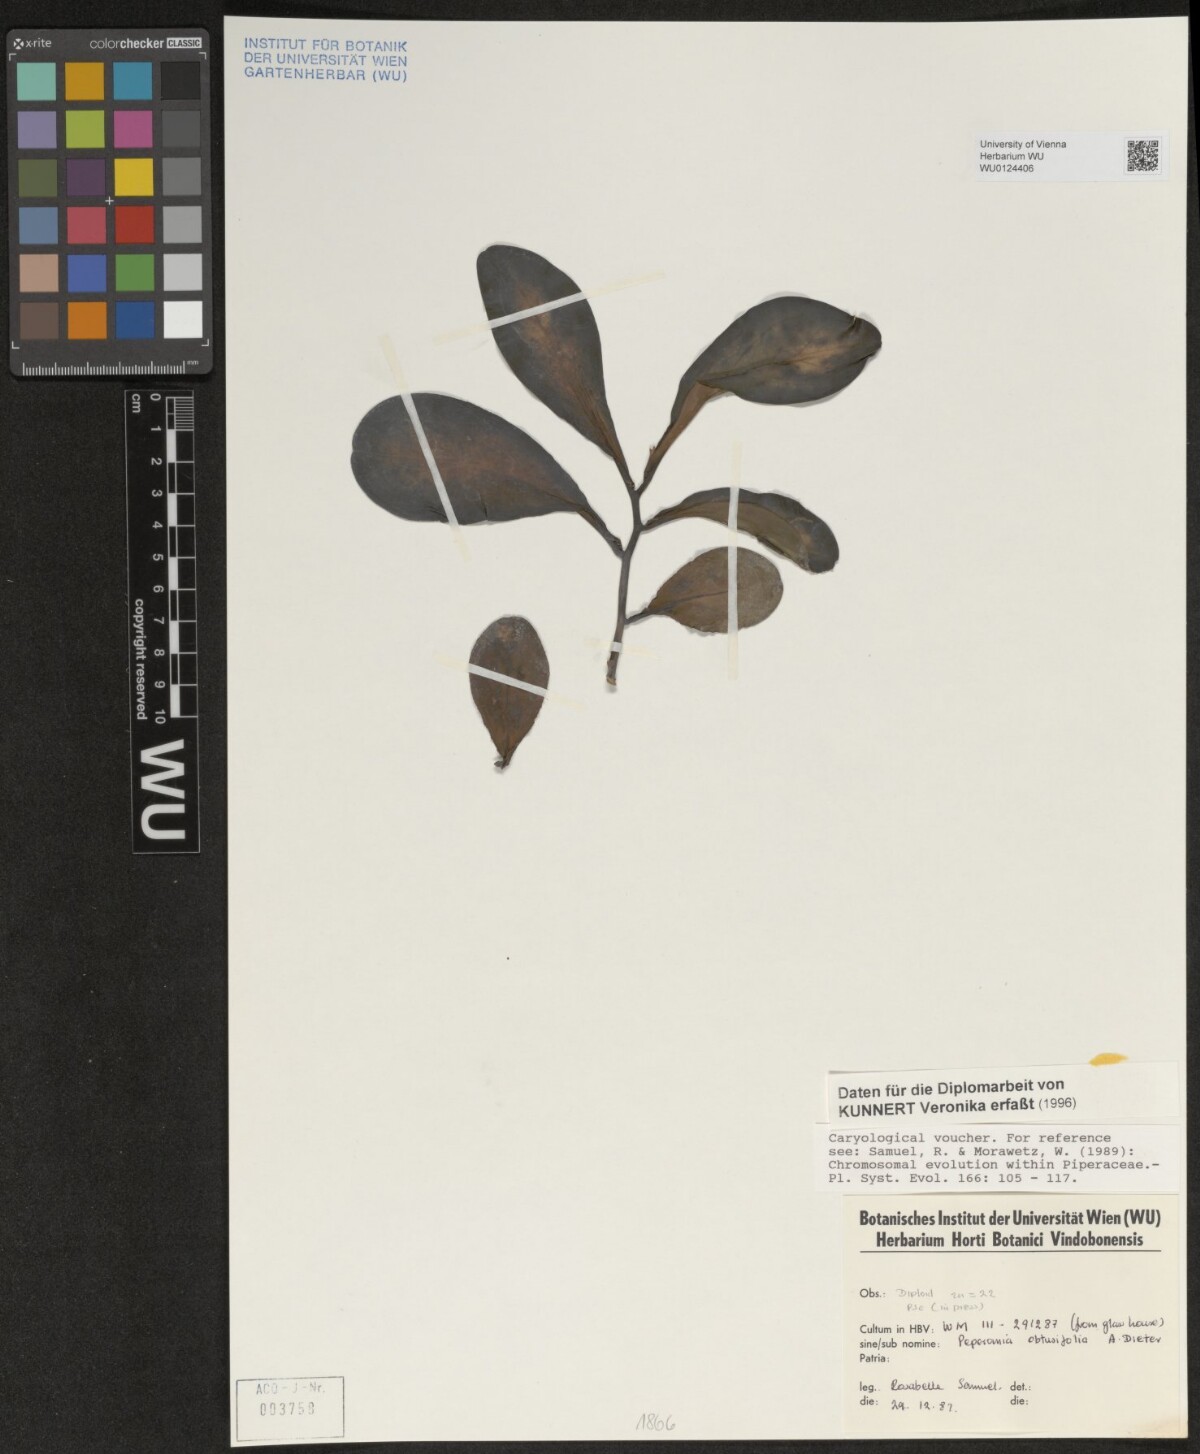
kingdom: Plantae
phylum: Tracheophyta
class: Magnoliopsida
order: Piperales
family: Piperaceae
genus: Peperomia
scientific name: Peperomia obtusifolia
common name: Baby rubberplant
